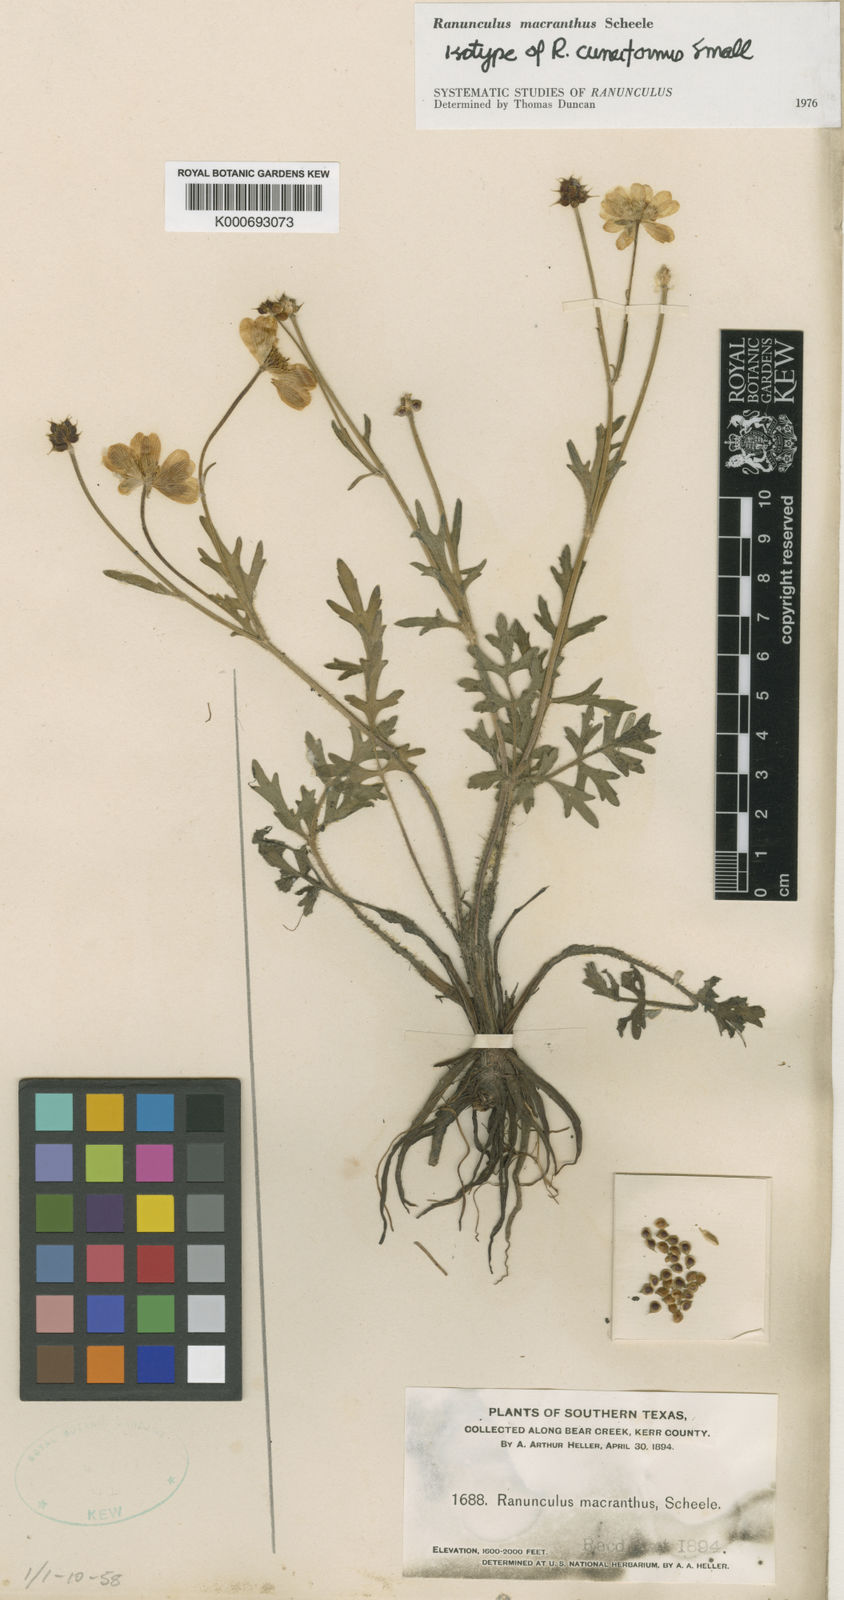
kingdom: Plantae
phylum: Tracheophyta
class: Magnoliopsida
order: Ranunculales
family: Ranunculaceae
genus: Ranunculus
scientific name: Ranunculus macranthus
